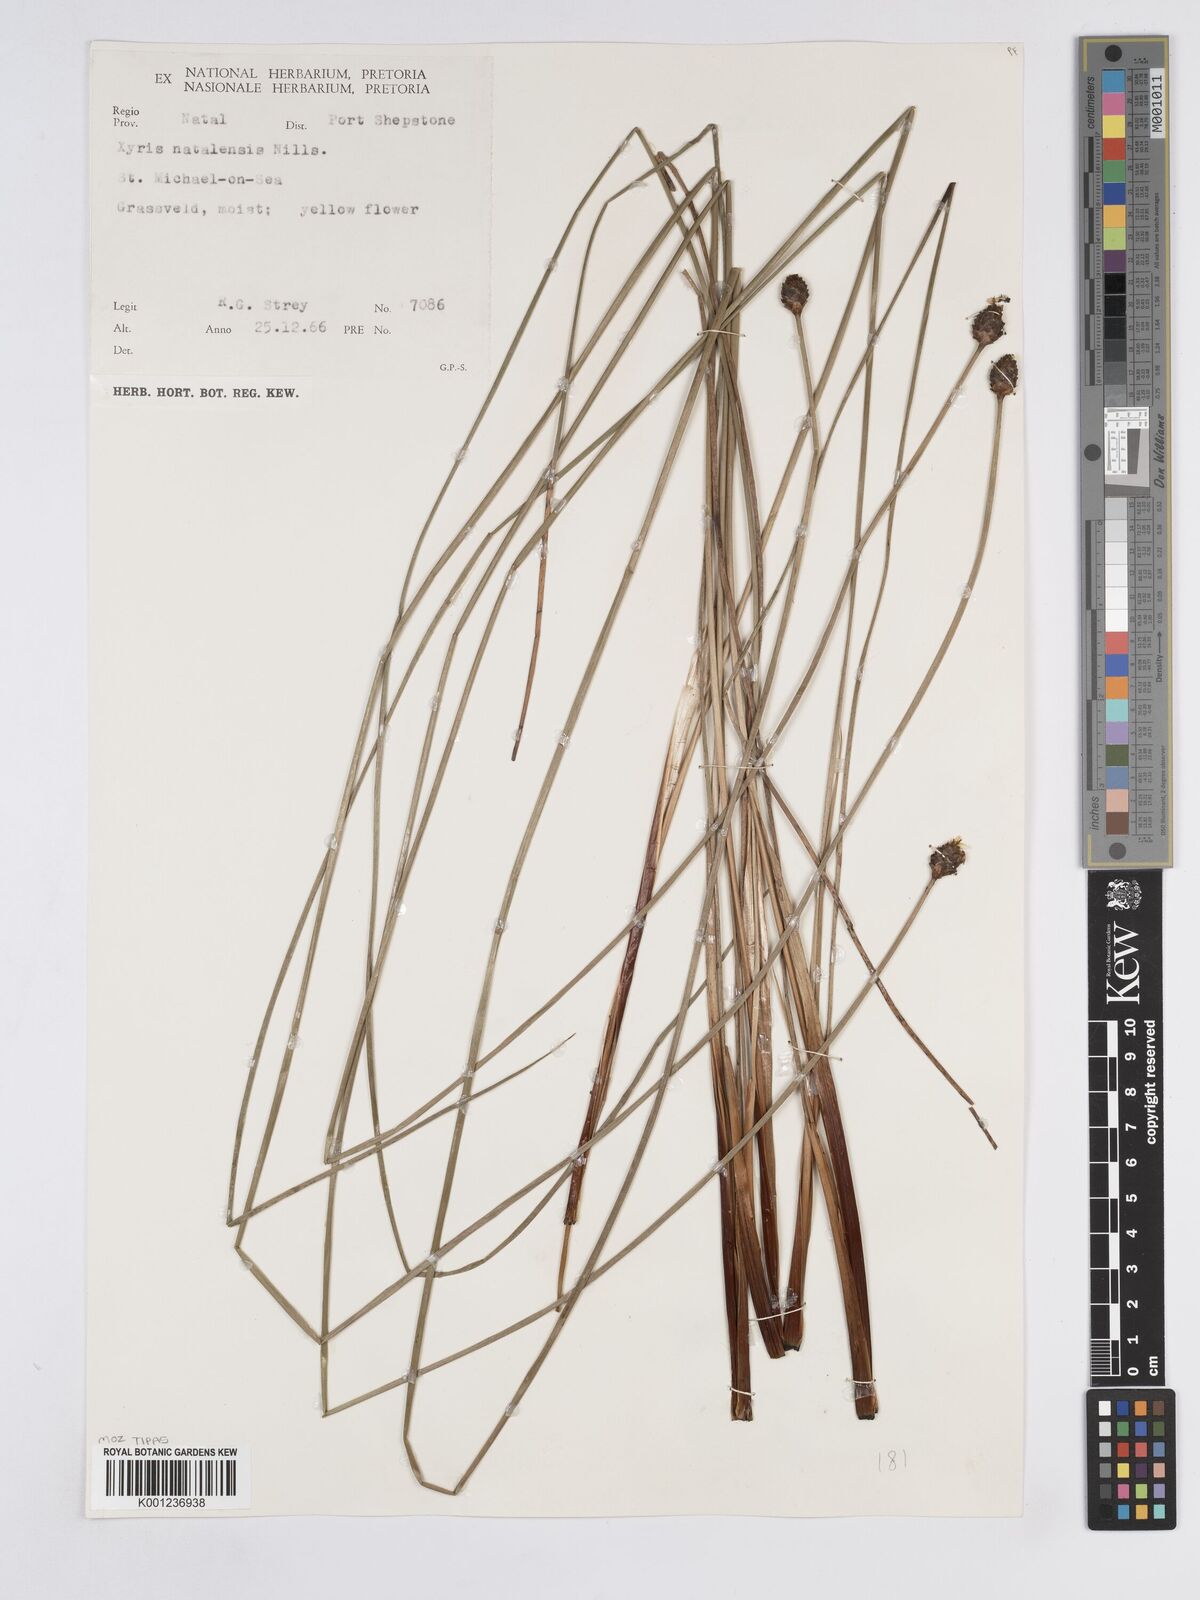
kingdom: Plantae
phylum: Tracheophyta
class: Liliopsida
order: Poales
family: Xyridaceae
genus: Xyris
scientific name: Xyris natalensis
